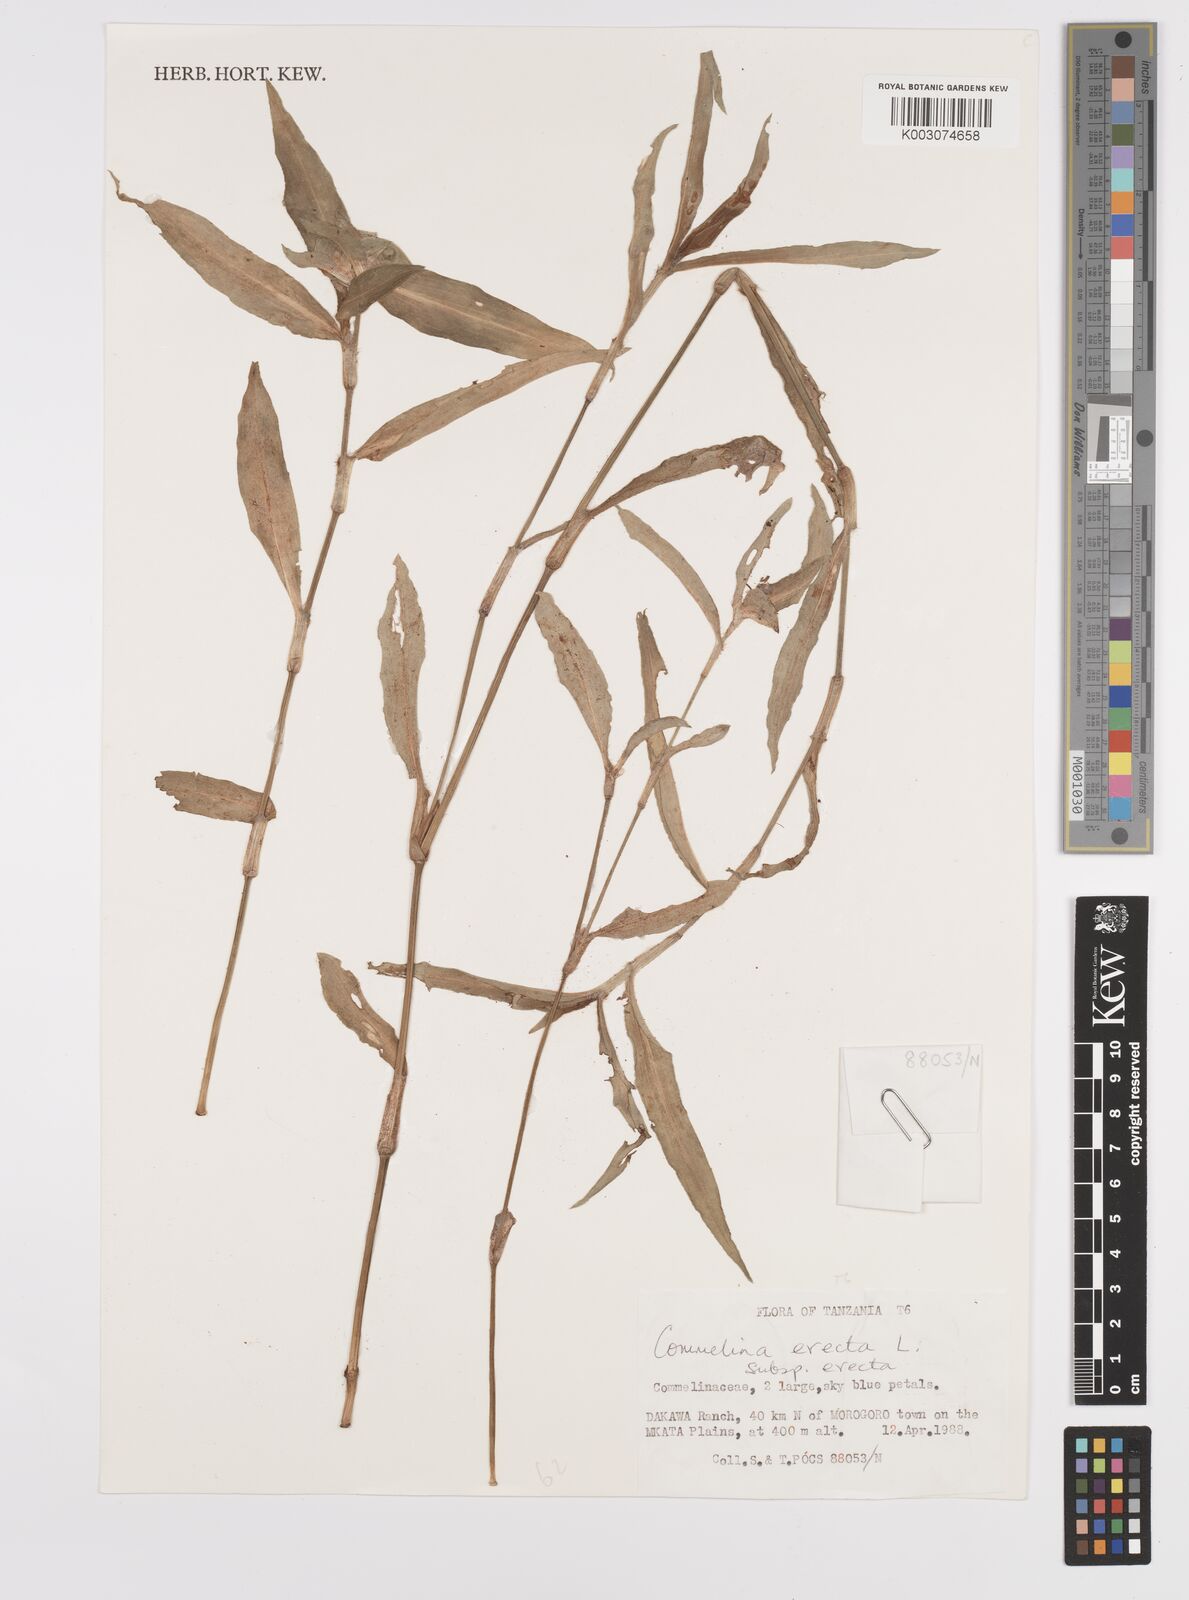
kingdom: Plantae
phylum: Tracheophyta
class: Liliopsida
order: Commelinales
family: Commelinaceae
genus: Commelina
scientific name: Commelina erecta
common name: Blousel blommetjie
